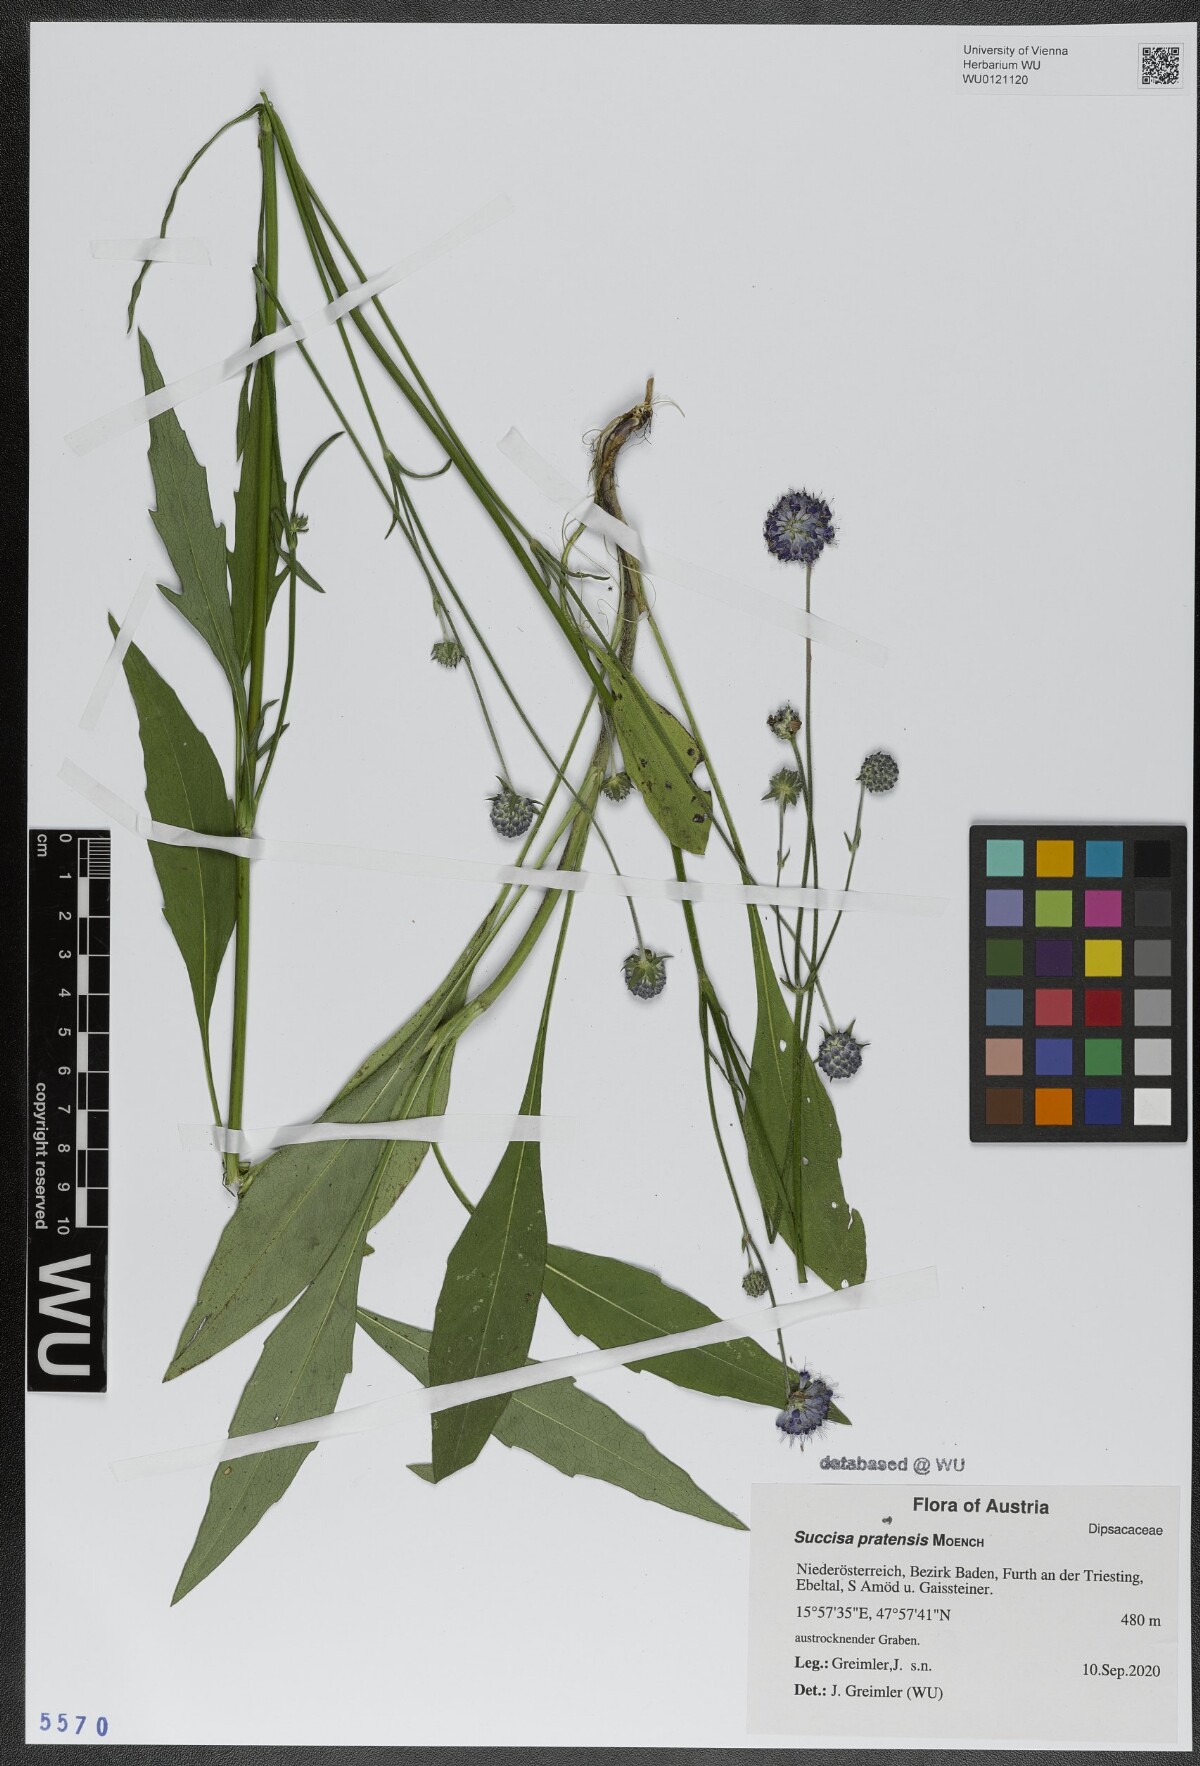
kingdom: Plantae
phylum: Tracheophyta
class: Magnoliopsida
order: Dipsacales
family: Caprifoliaceae
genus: Succisa
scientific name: Succisa pratensis
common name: Devil's-bit
